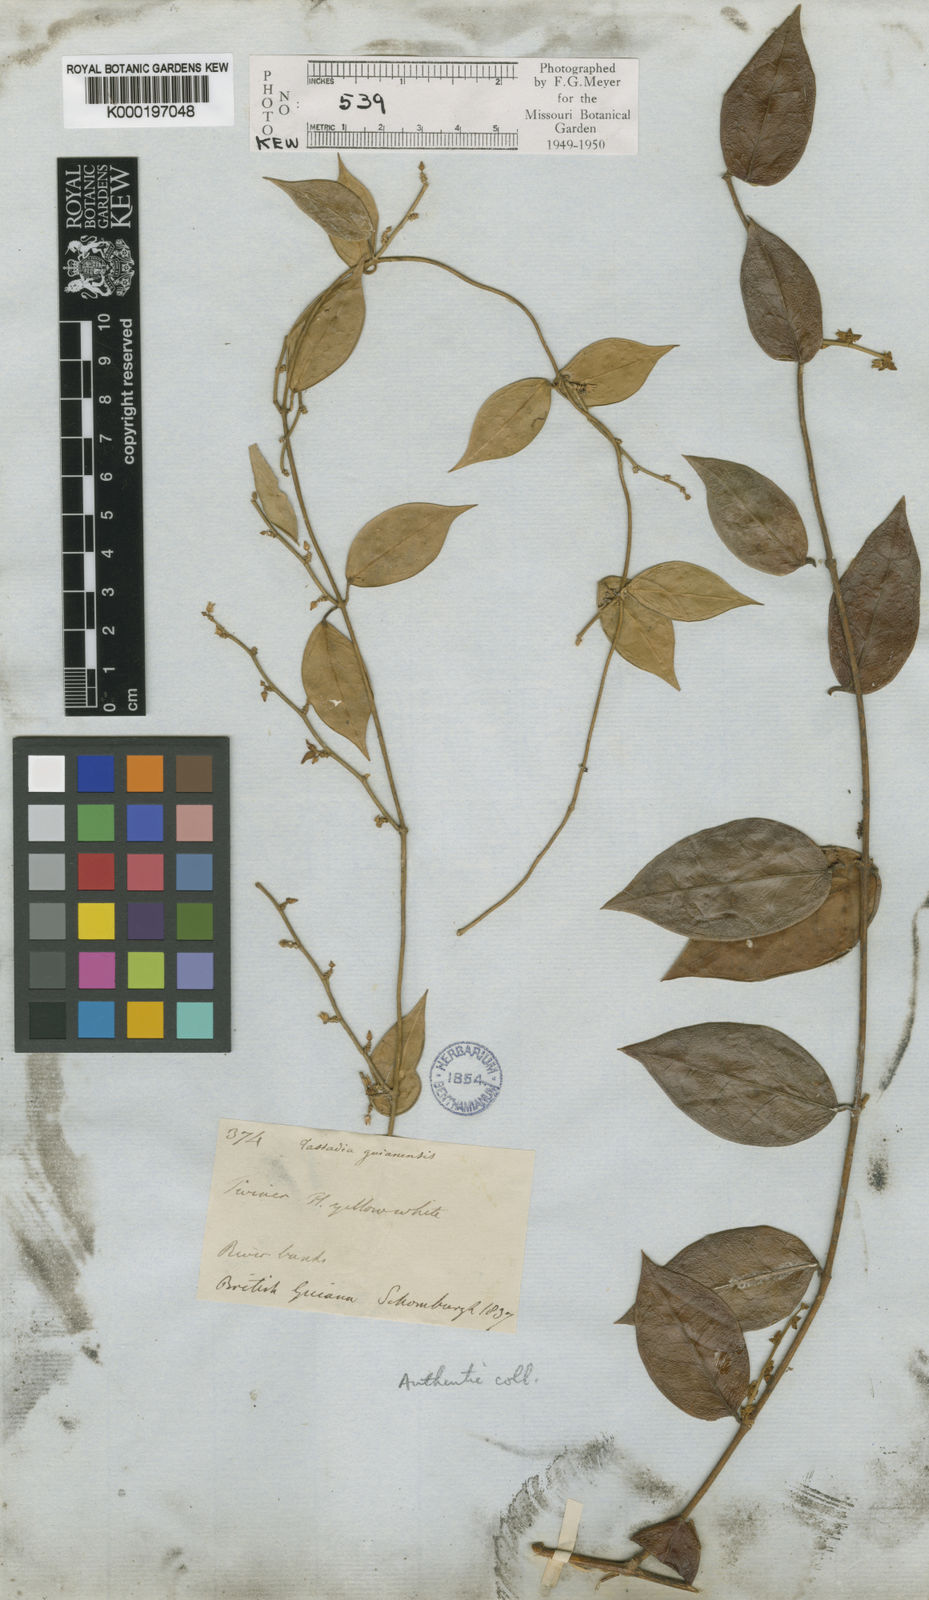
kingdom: Plantae
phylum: Tracheophyta
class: Magnoliopsida
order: Gentianales
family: Apocynaceae
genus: Tassadia
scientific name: Tassadia guianensis
